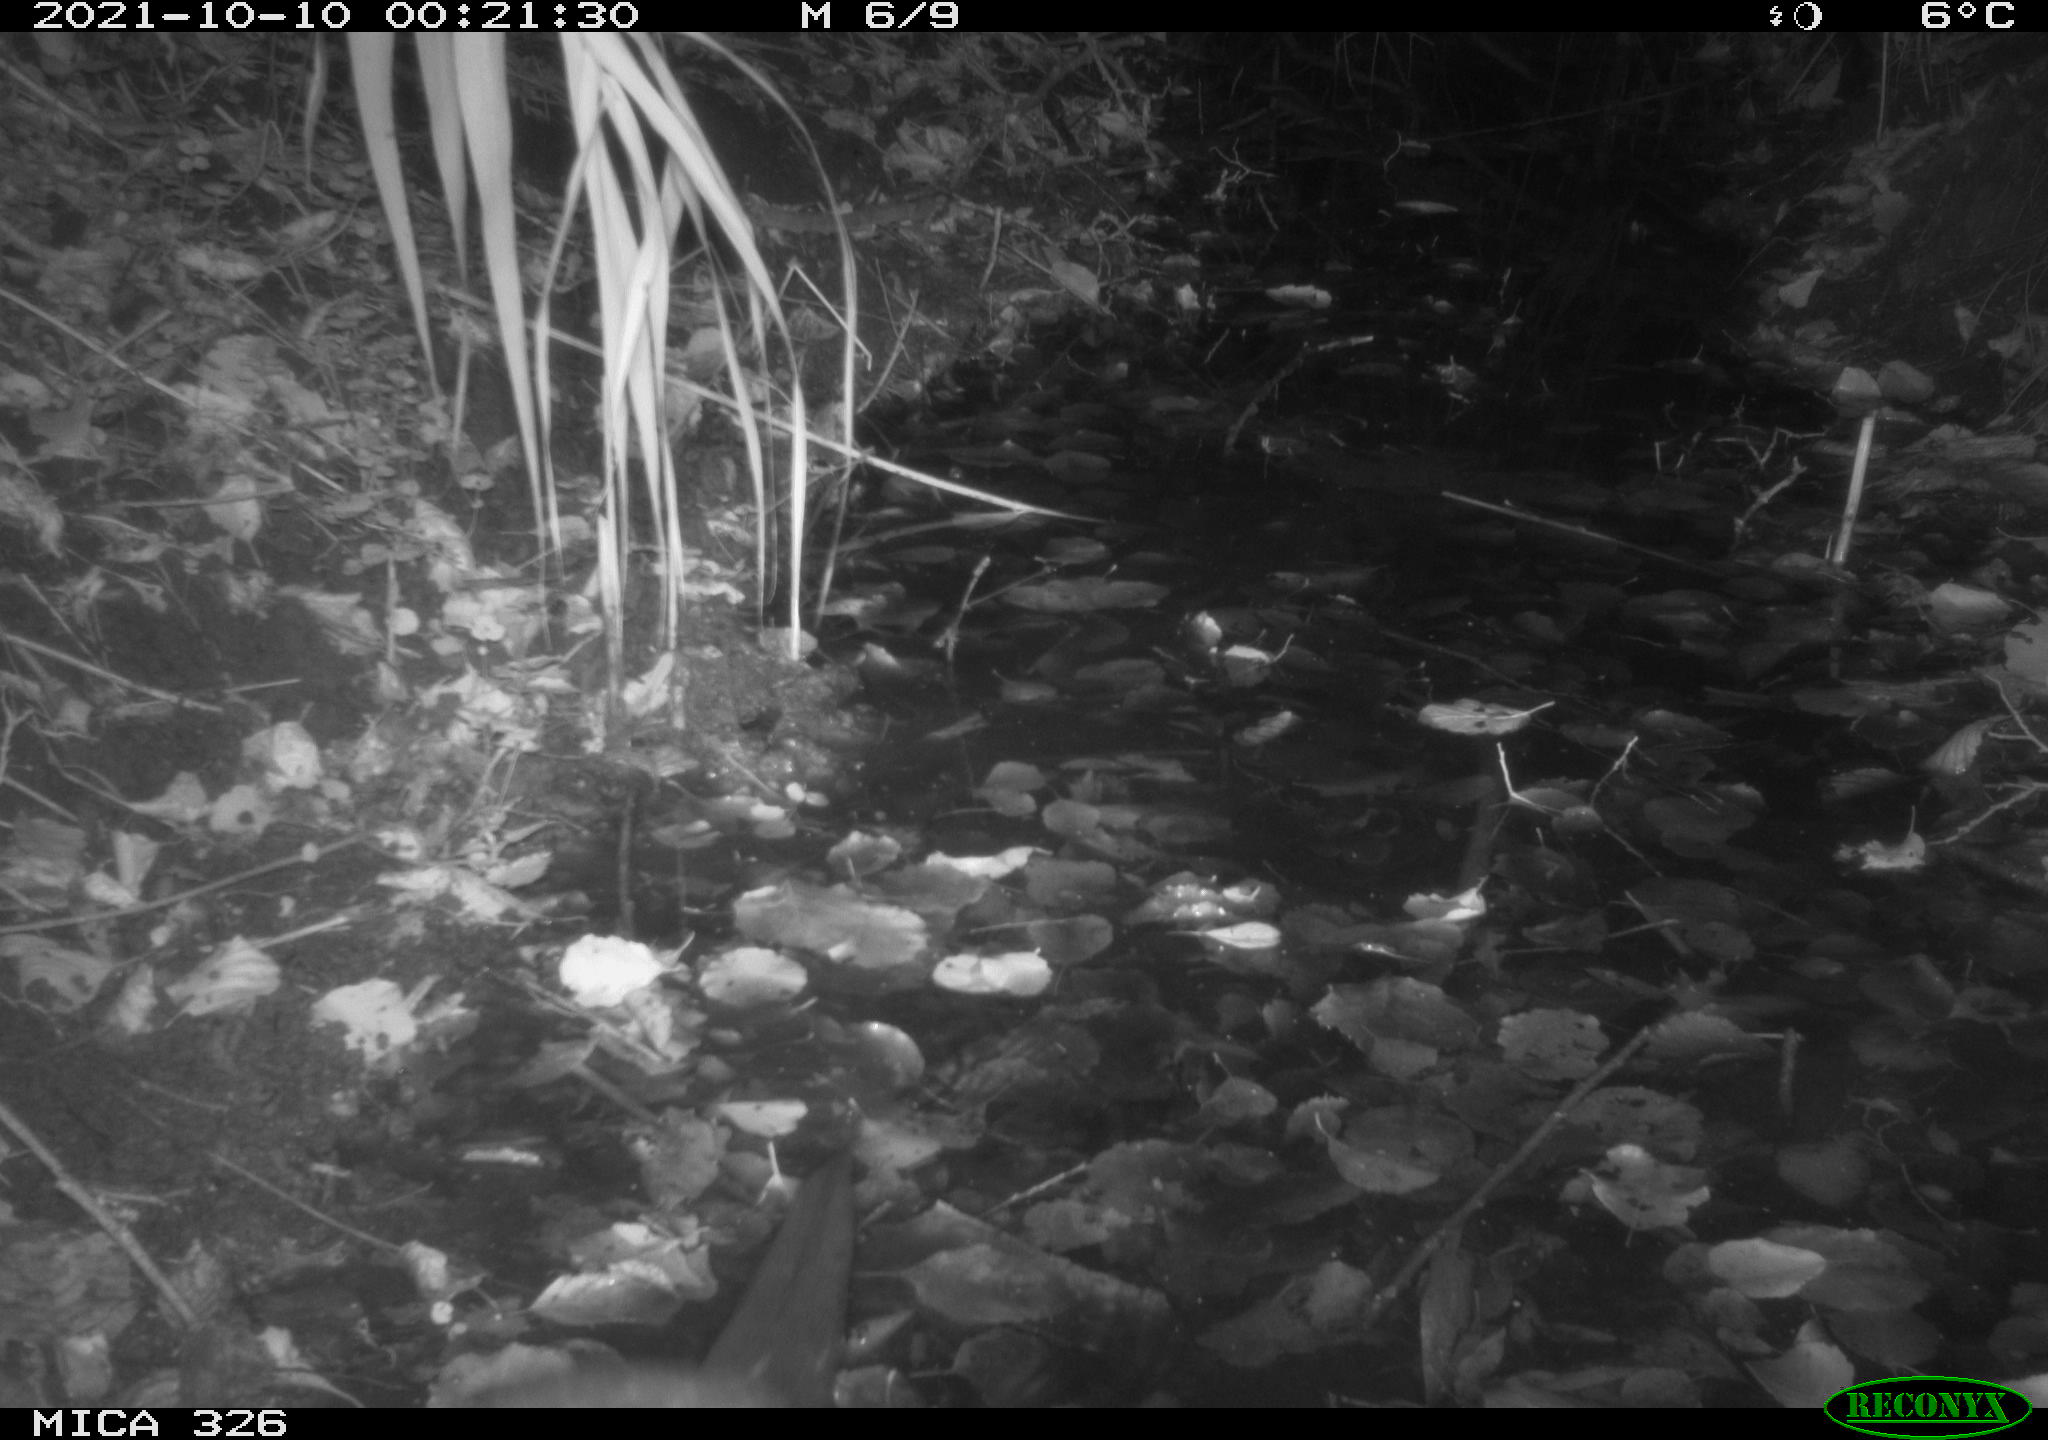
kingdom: Animalia
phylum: Chordata
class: Mammalia
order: Carnivora
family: Mustelidae
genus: Lutra
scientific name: Lutra lutra
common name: European otter
